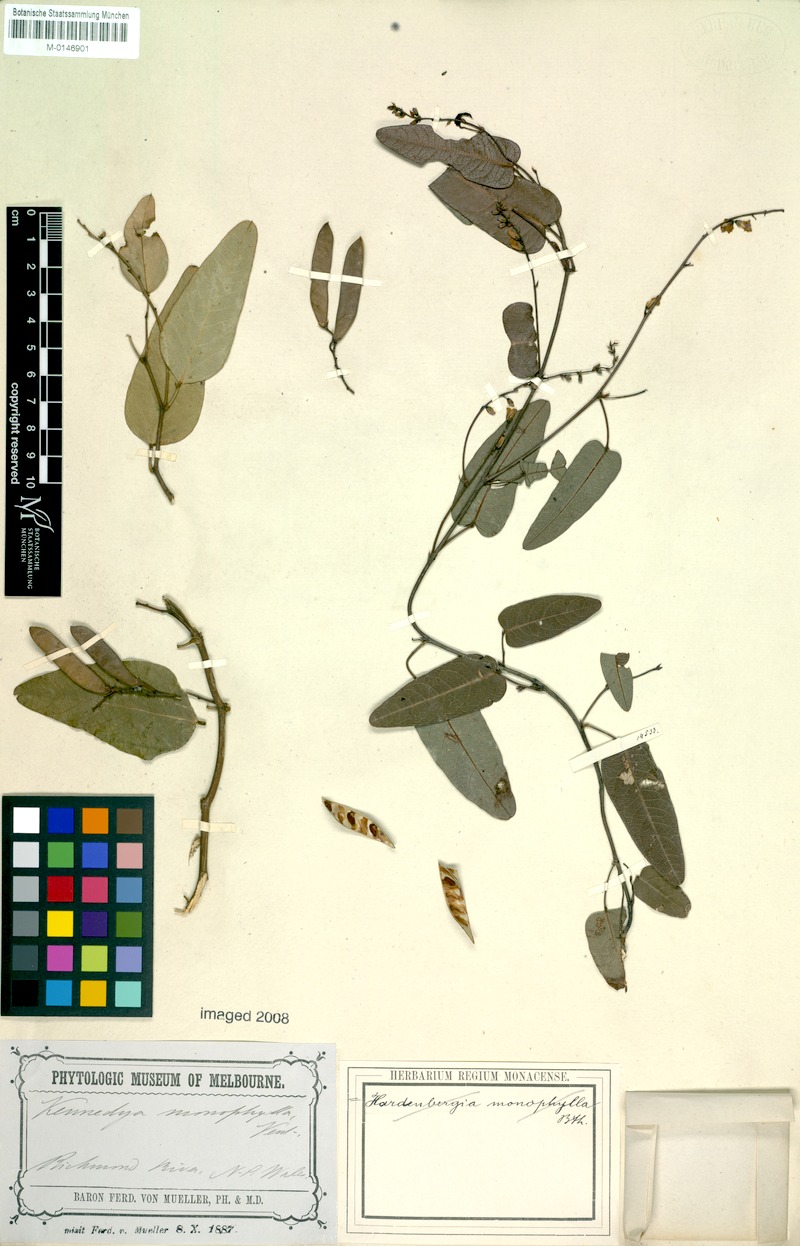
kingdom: Plantae
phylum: Tracheophyta
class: Magnoliopsida
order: Fabales
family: Fabaceae
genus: Hardenbergia
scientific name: Hardenbergia violacea
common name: Coral-pea
